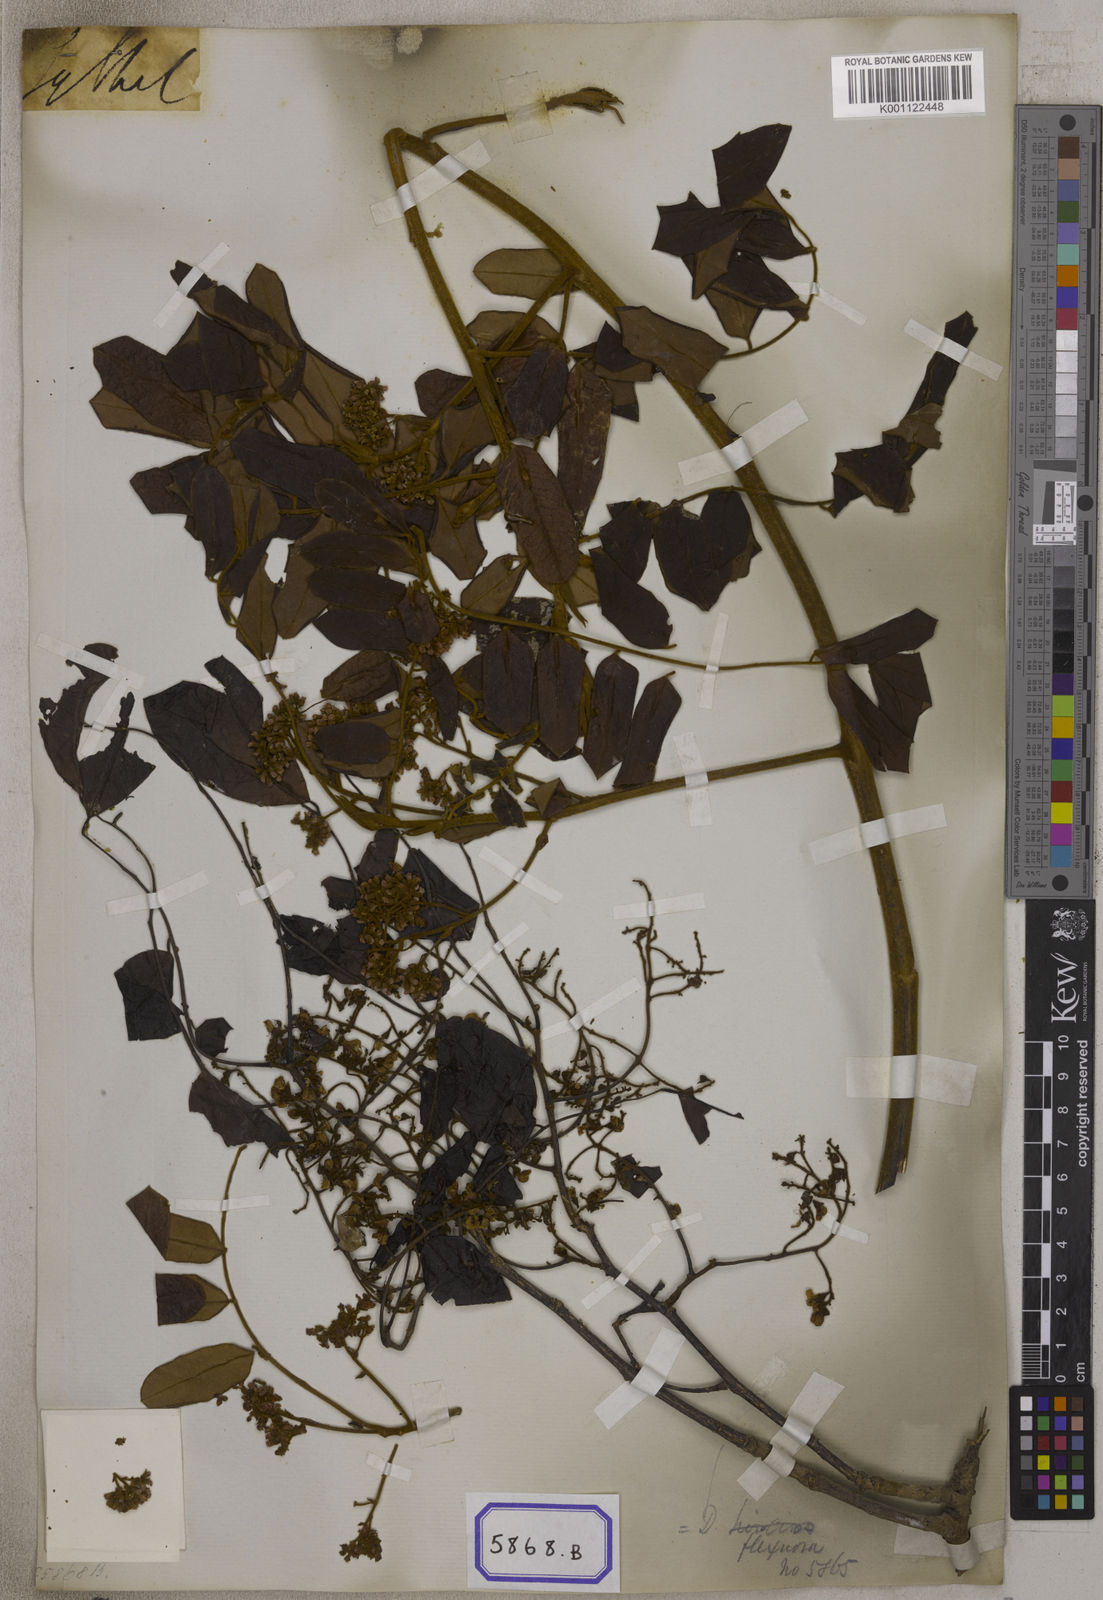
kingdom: Plantae
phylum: Tracheophyta
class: Magnoliopsida
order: Fabales
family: Fabaceae
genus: Dalbergia
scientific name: Dalbergia
